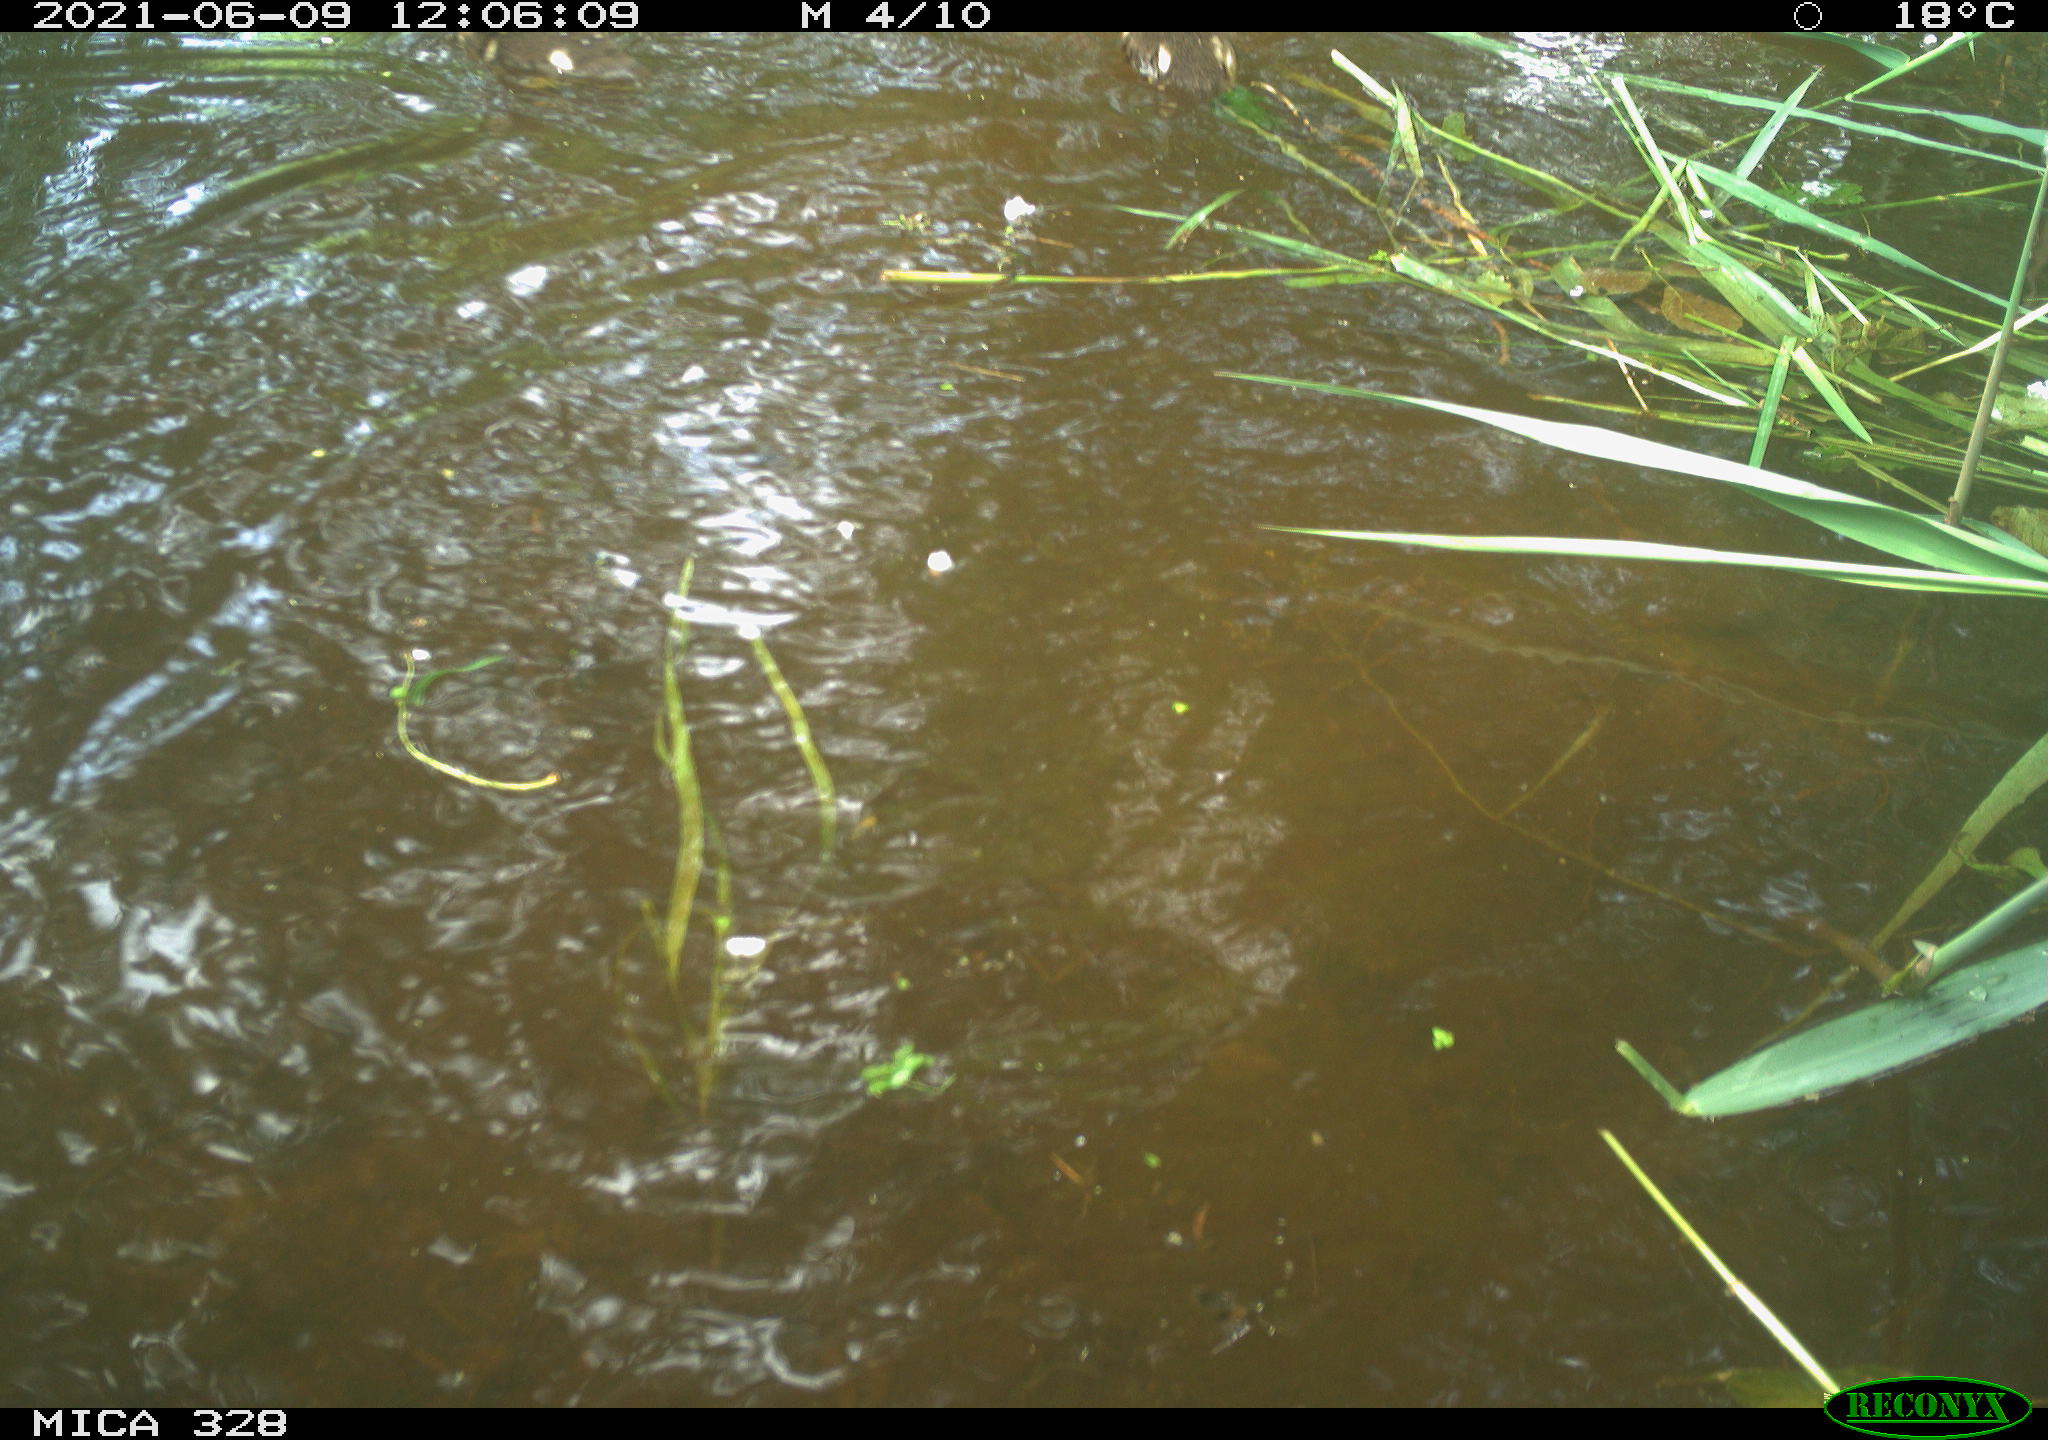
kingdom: Animalia
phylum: Chordata
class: Aves
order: Anseriformes
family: Anatidae
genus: Aix
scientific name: Aix galericulata
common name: Mandarin duck
